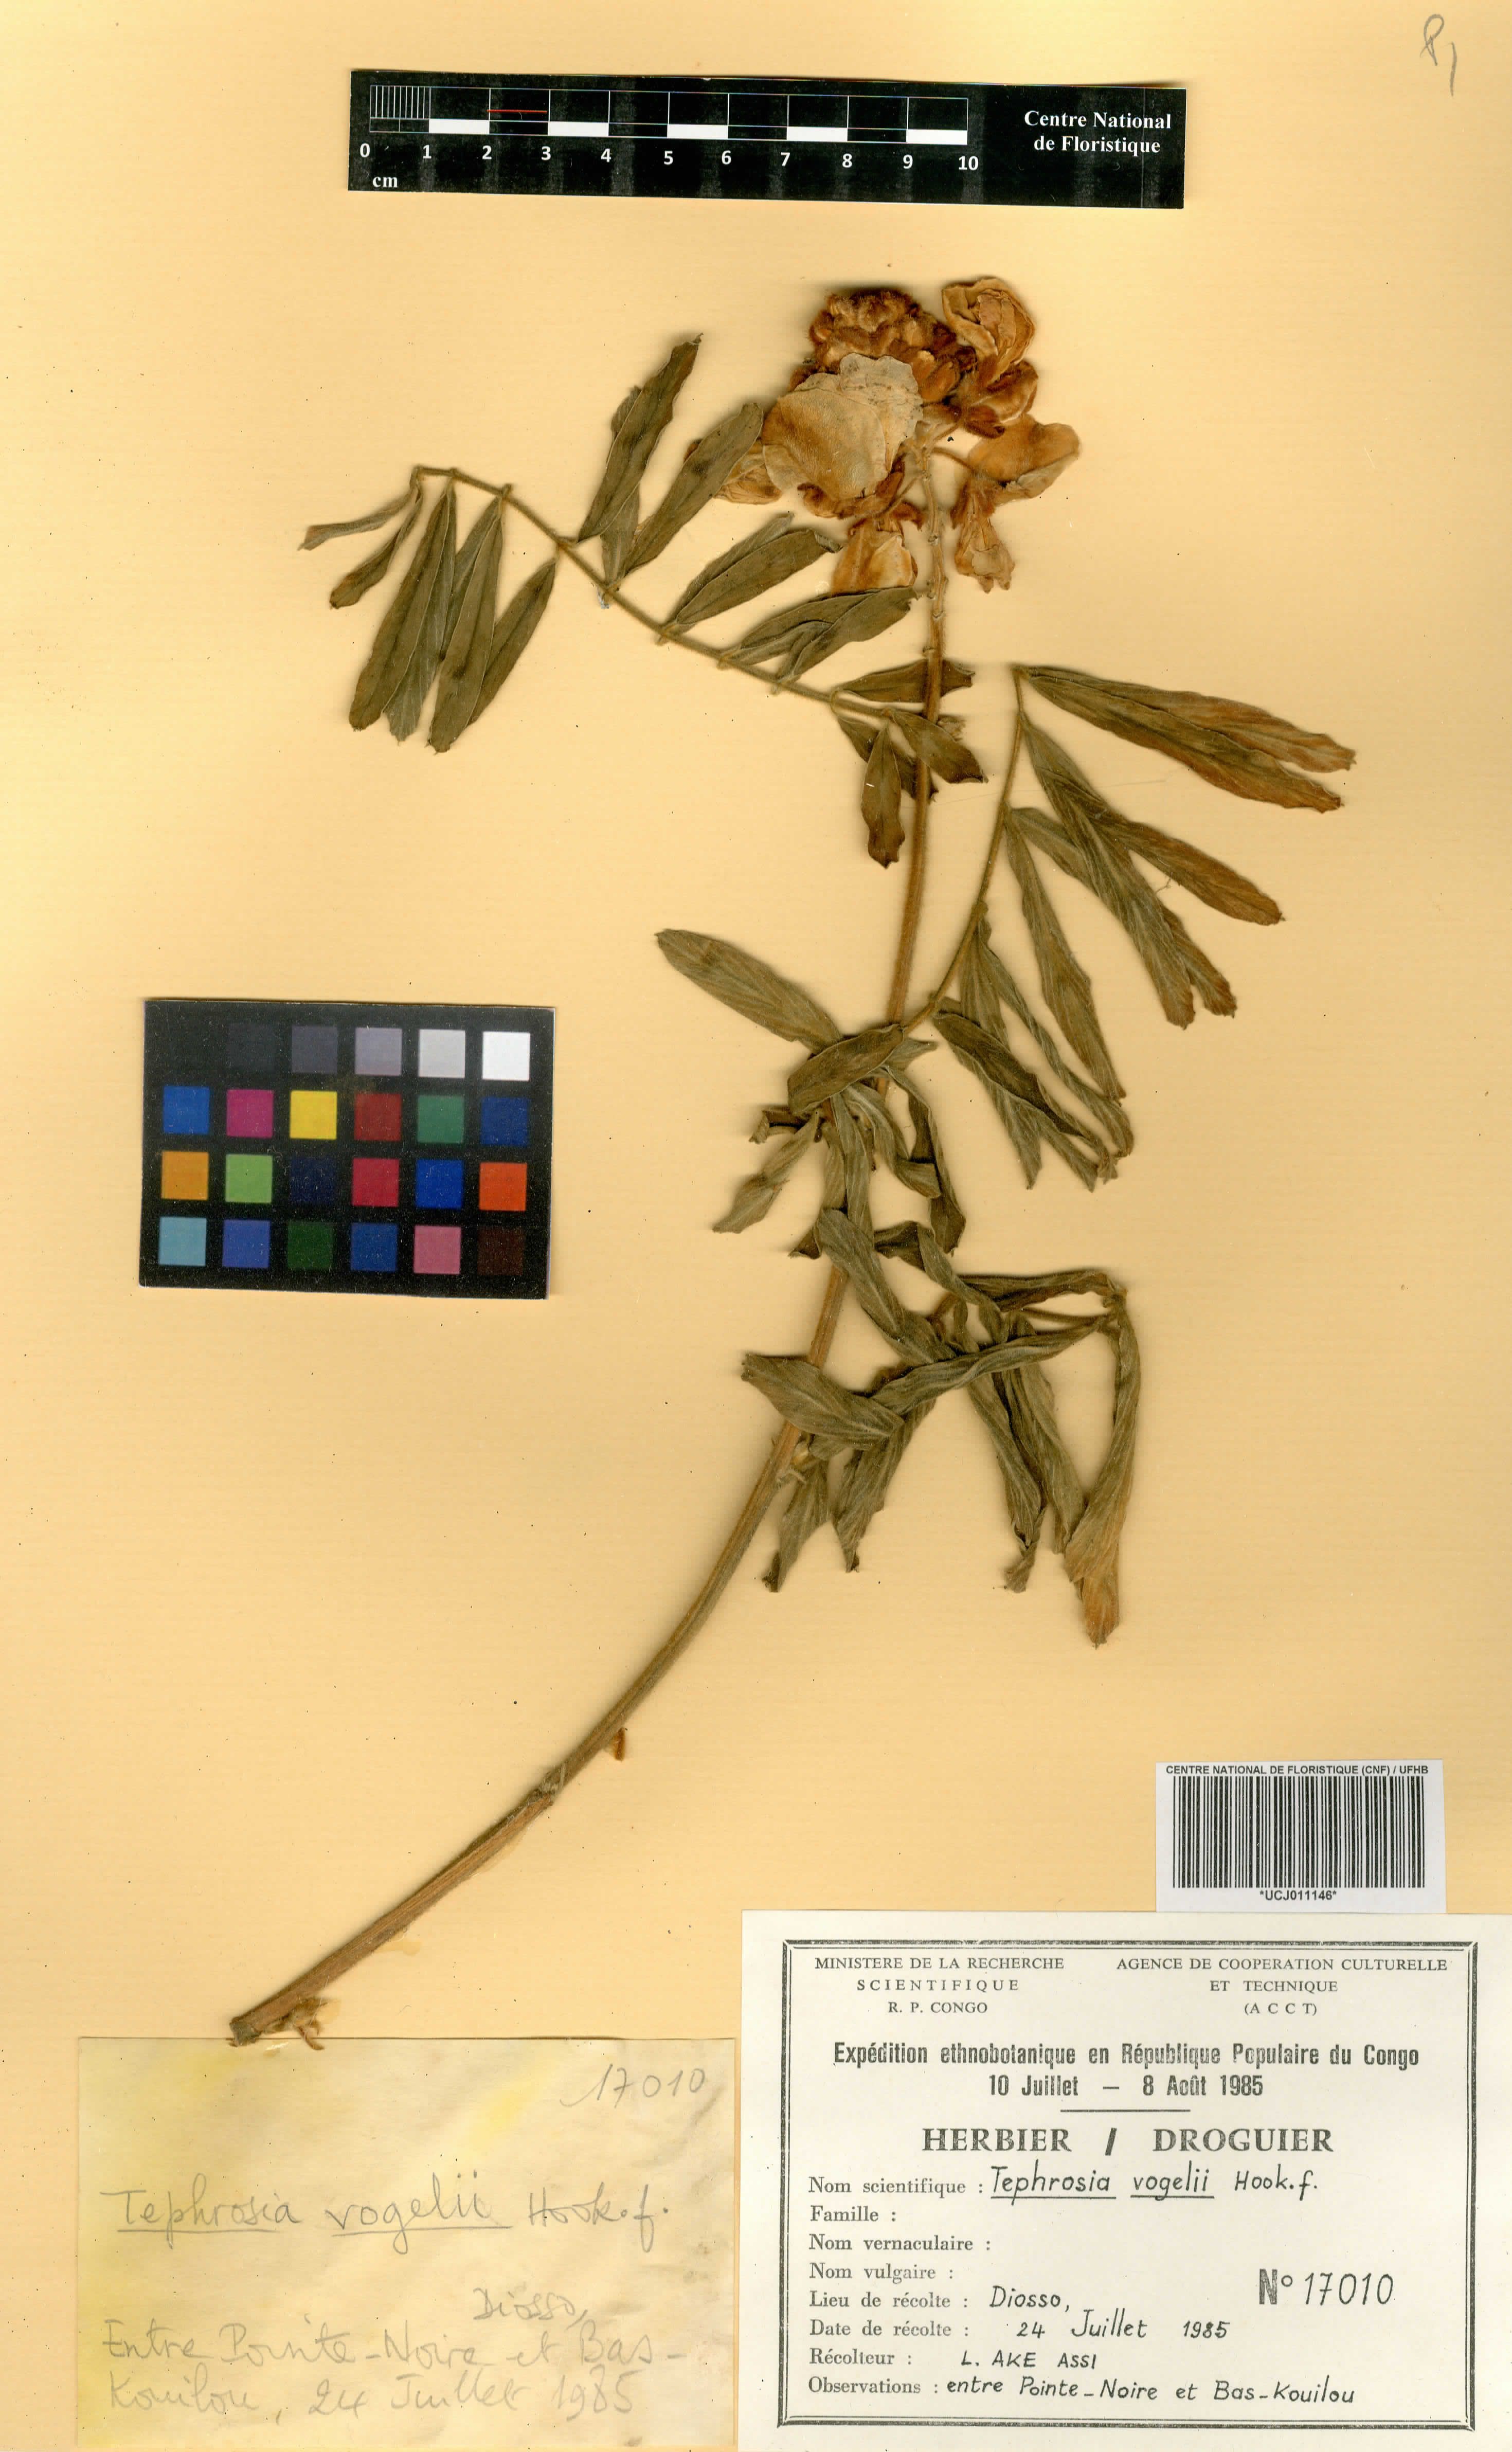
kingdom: Plantae
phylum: Tracheophyta
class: Magnoliopsida
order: Fabales
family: Fabaceae
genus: Tephrosia
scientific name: Tephrosia vogelii
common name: Vogel tephrosia
